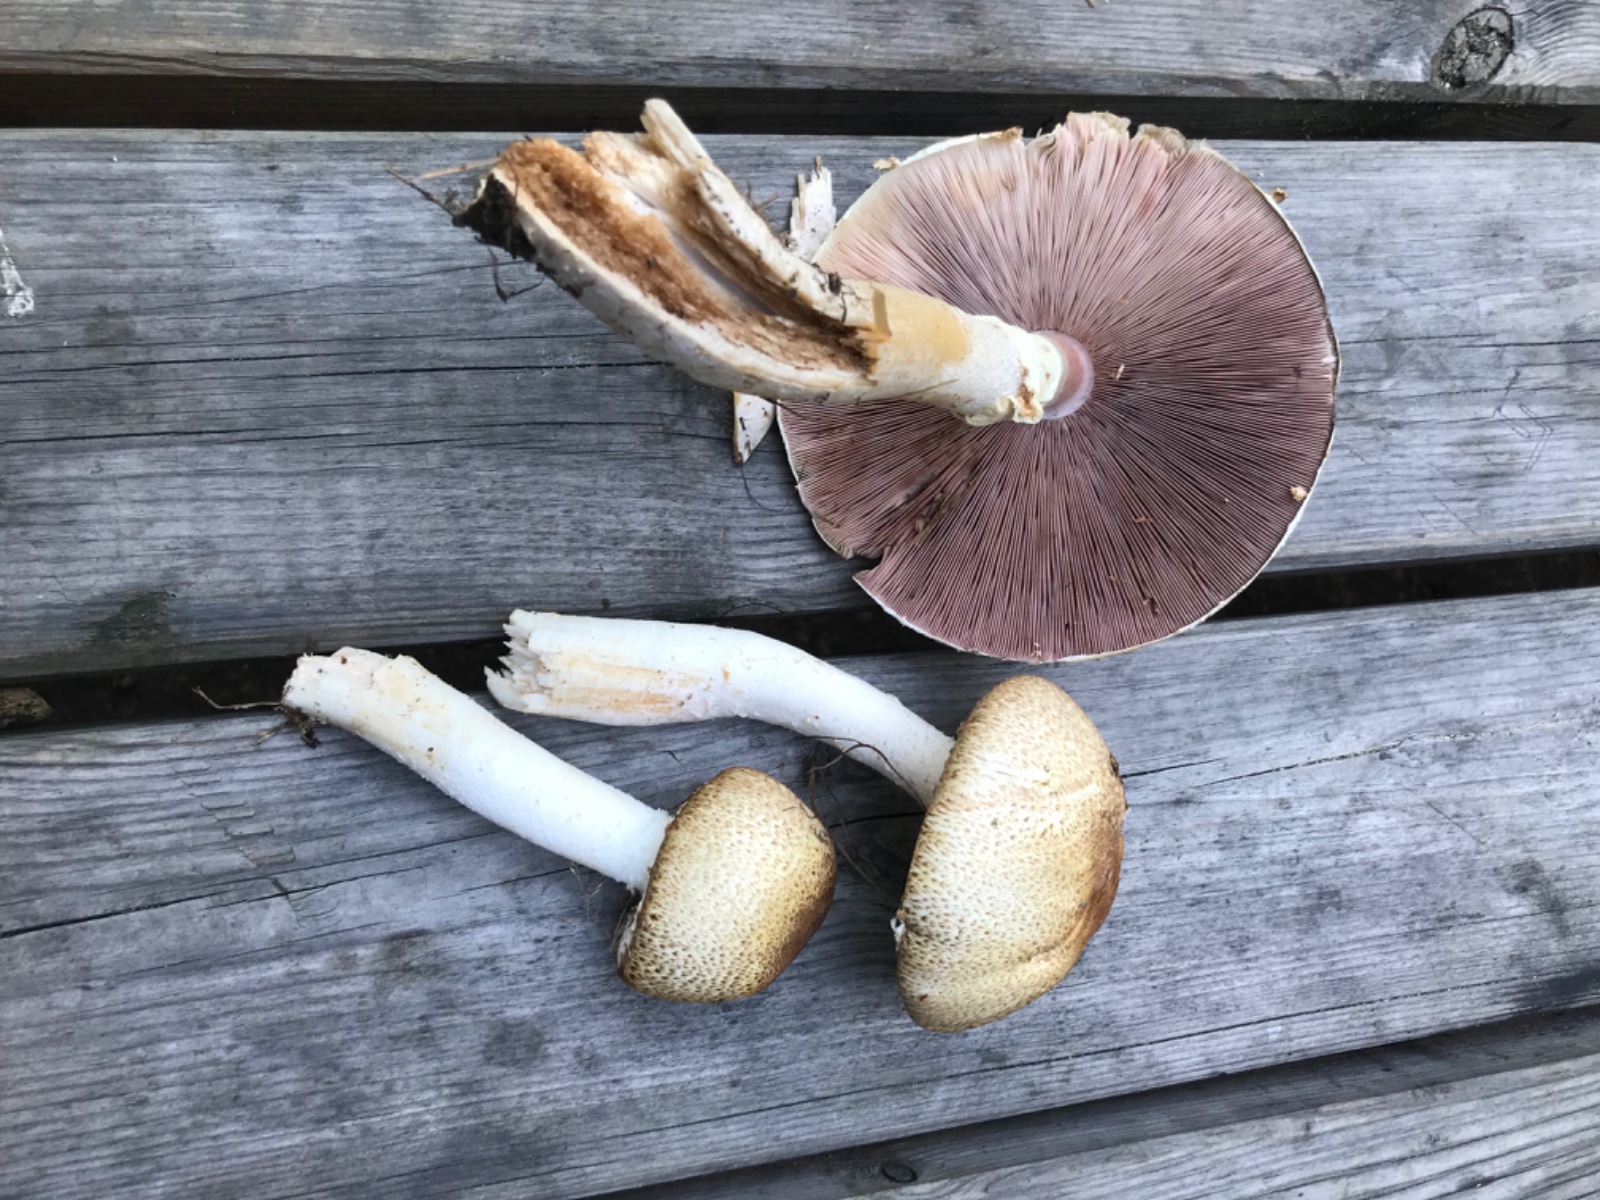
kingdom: Fungi
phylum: Basidiomycota
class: Agaricomycetes
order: Agaricales
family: Agaricaceae
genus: Agaricus
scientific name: Agaricus augustus
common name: prægtig champignon
